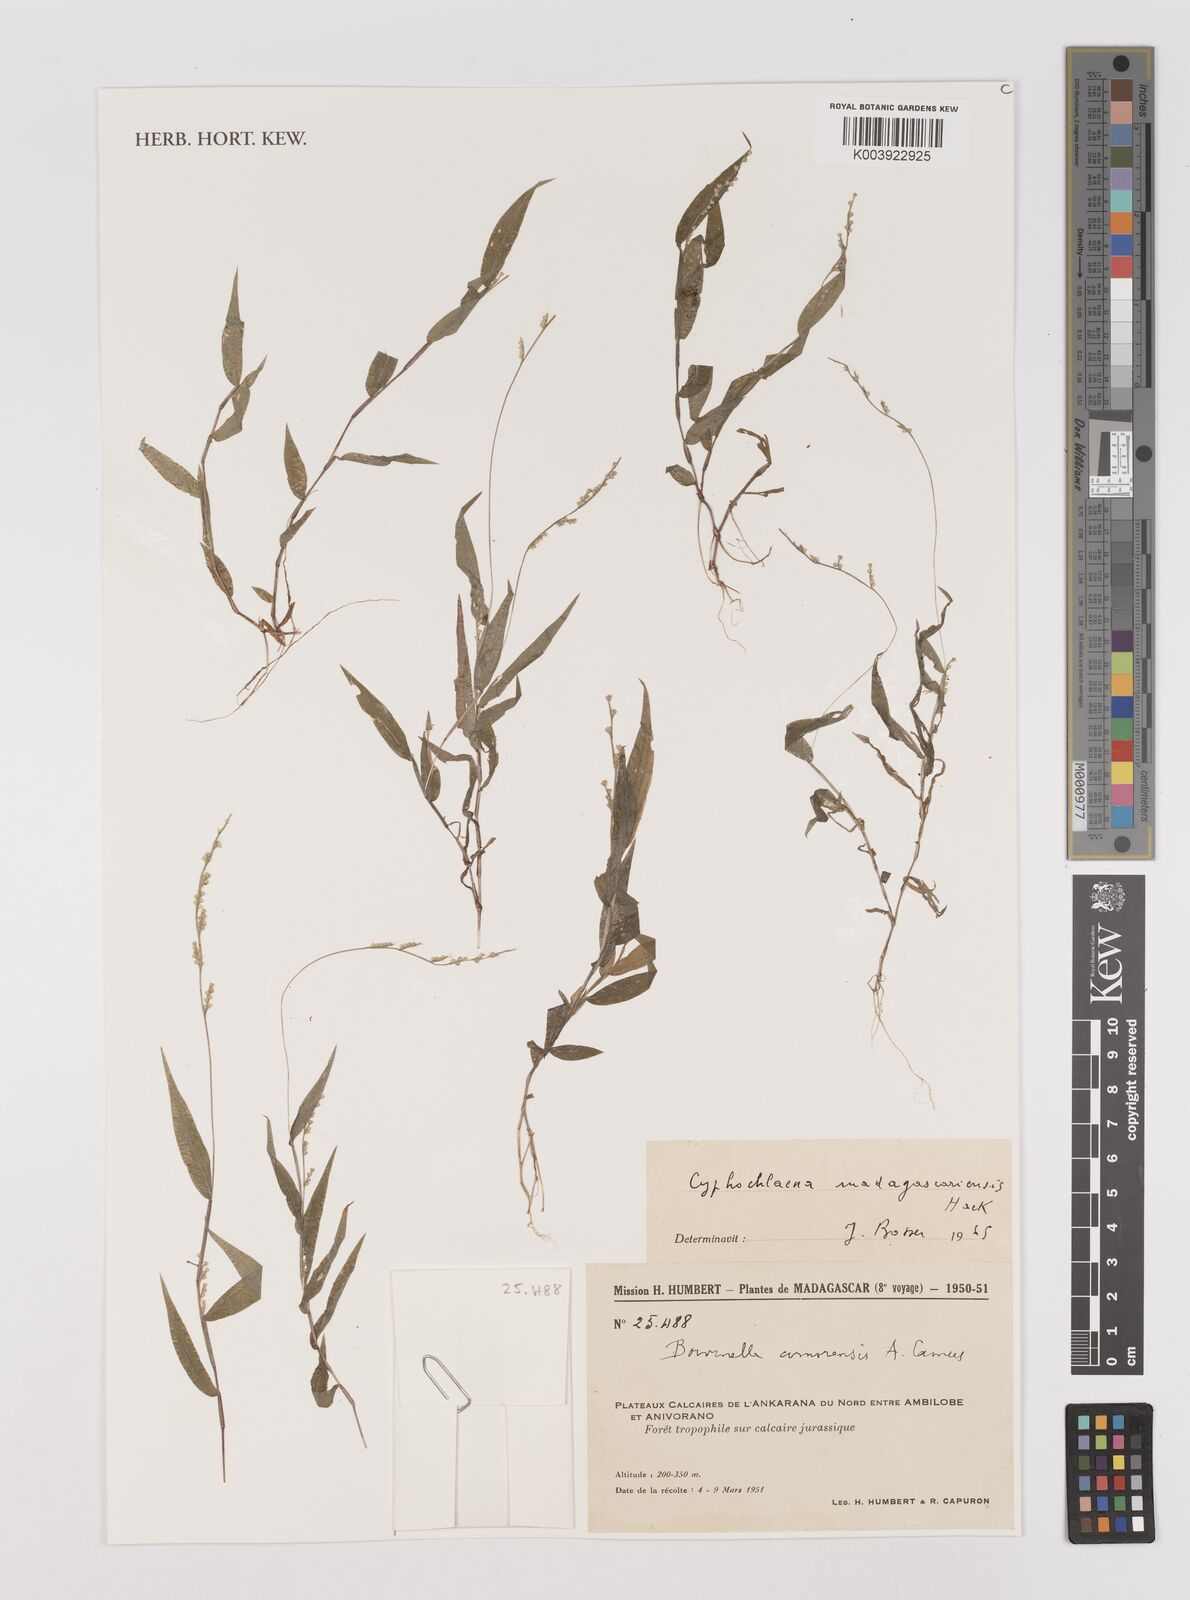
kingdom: Plantae
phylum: Tracheophyta
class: Liliopsida
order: Poales
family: Poaceae
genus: Cyphochlaena
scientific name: Cyphochlaena madagascariensis
